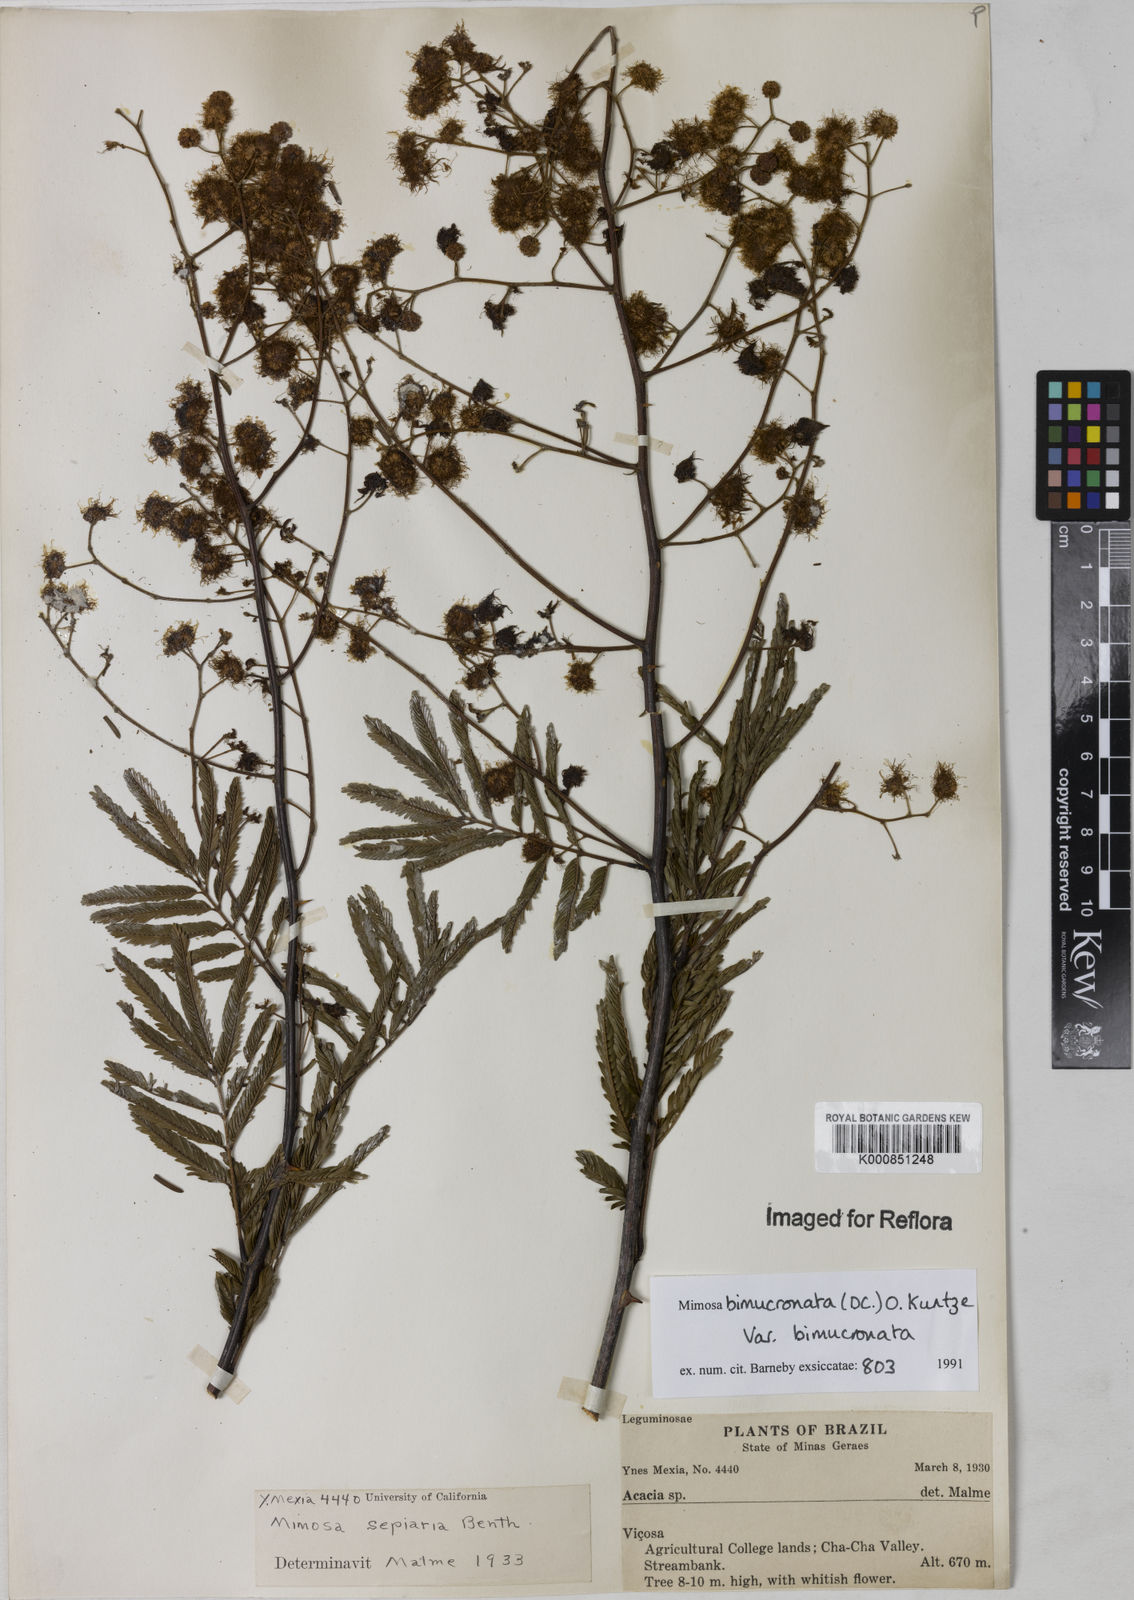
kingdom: Plantae
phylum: Tracheophyta
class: Magnoliopsida
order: Fabales
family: Fabaceae
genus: Mimosa
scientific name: Mimosa bimucronata
